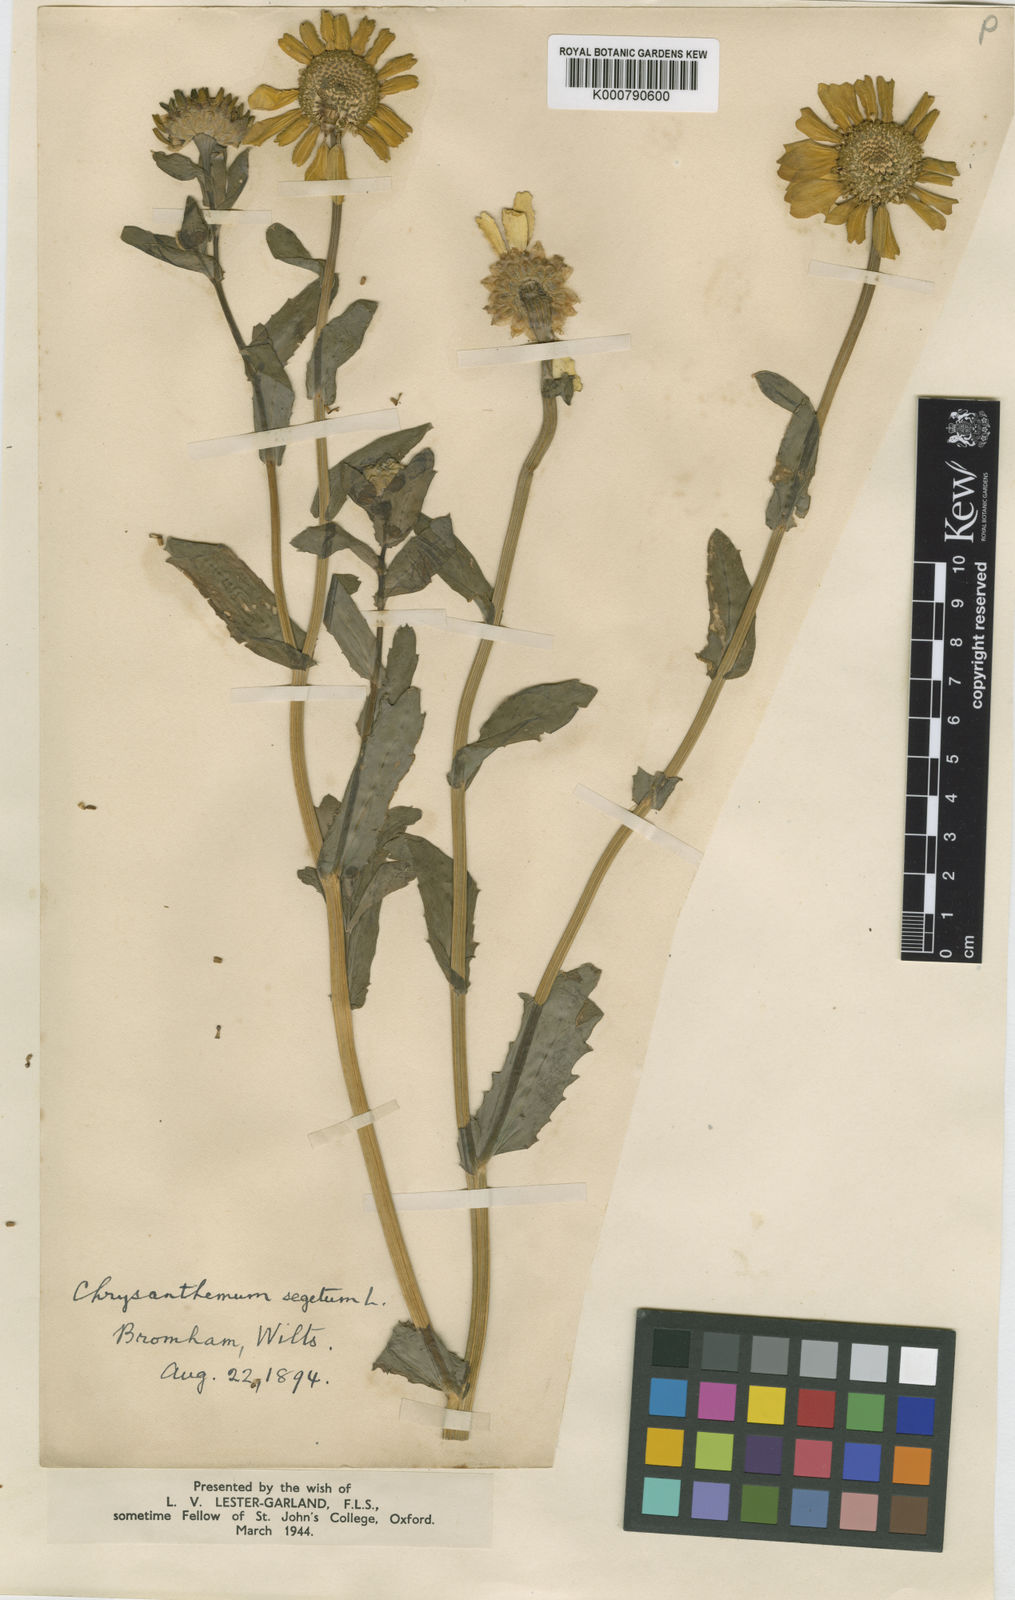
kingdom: Plantae
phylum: Tracheophyta
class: Magnoliopsida
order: Asterales
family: Asteraceae
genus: Glebionis
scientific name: Glebionis
